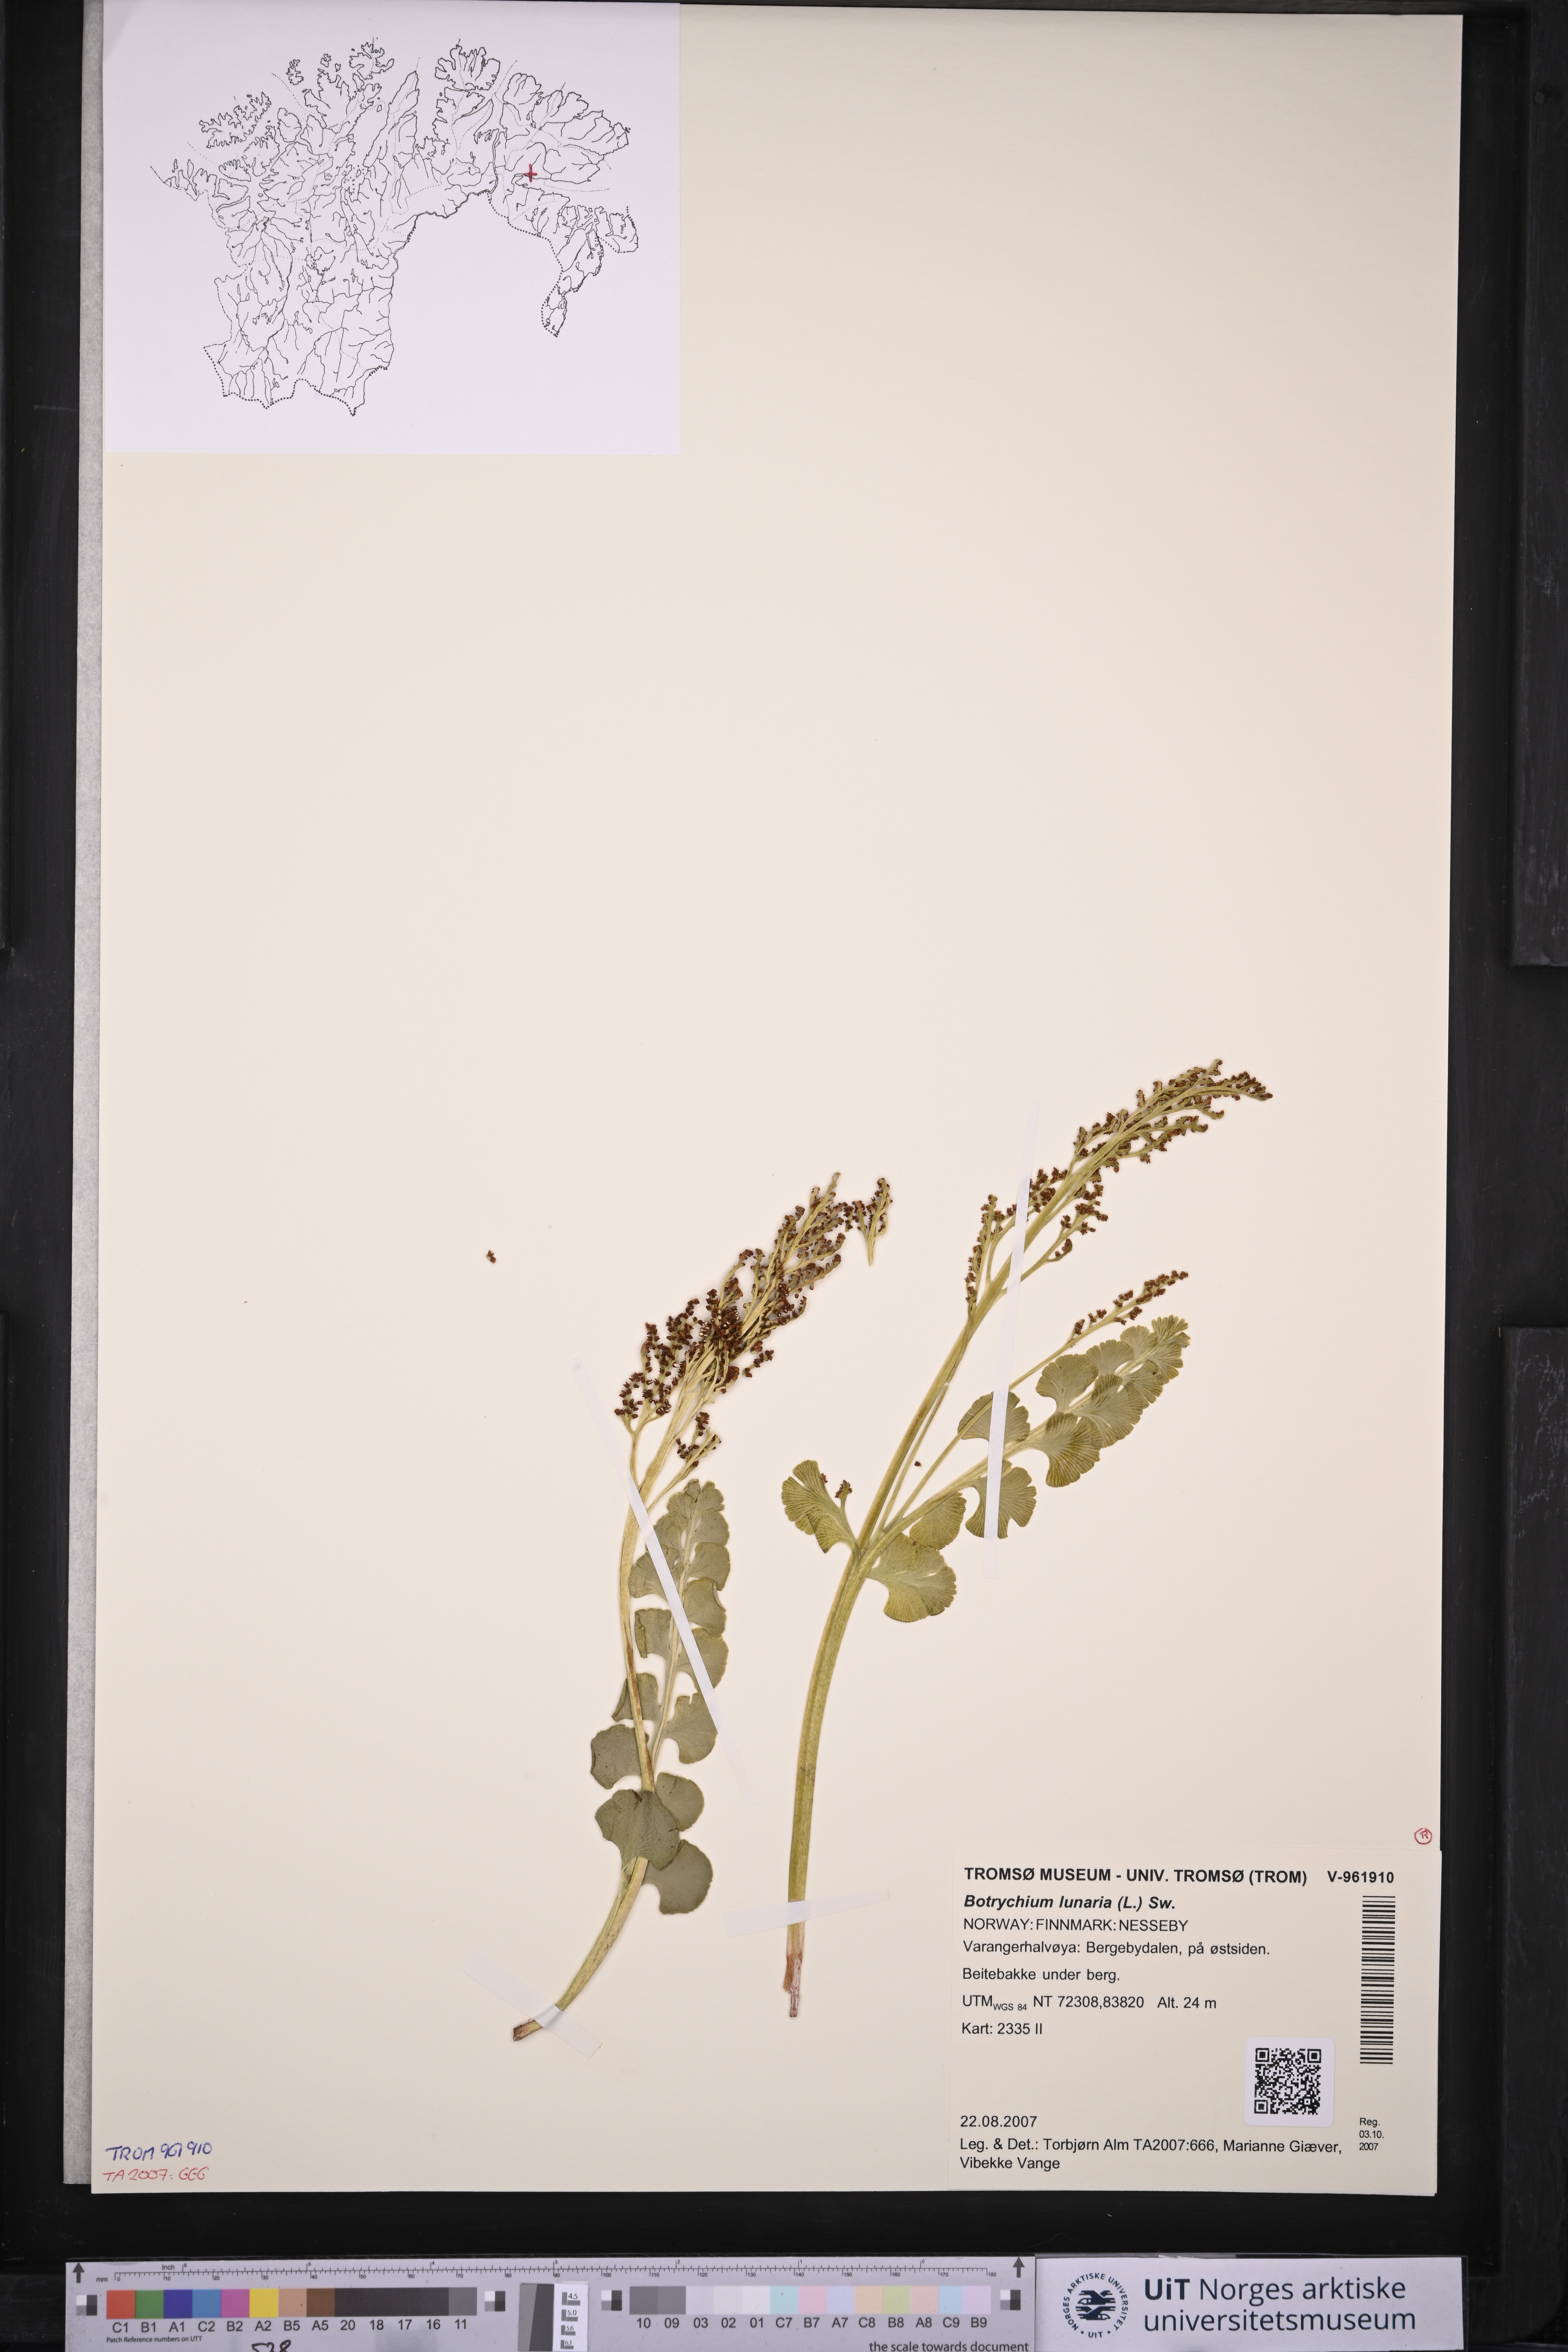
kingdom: Plantae
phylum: Tracheophyta
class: Polypodiopsida
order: Ophioglossales
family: Ophioglossaceae
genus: Botrychium
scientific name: Botrychium lunaria
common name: Moonwort
